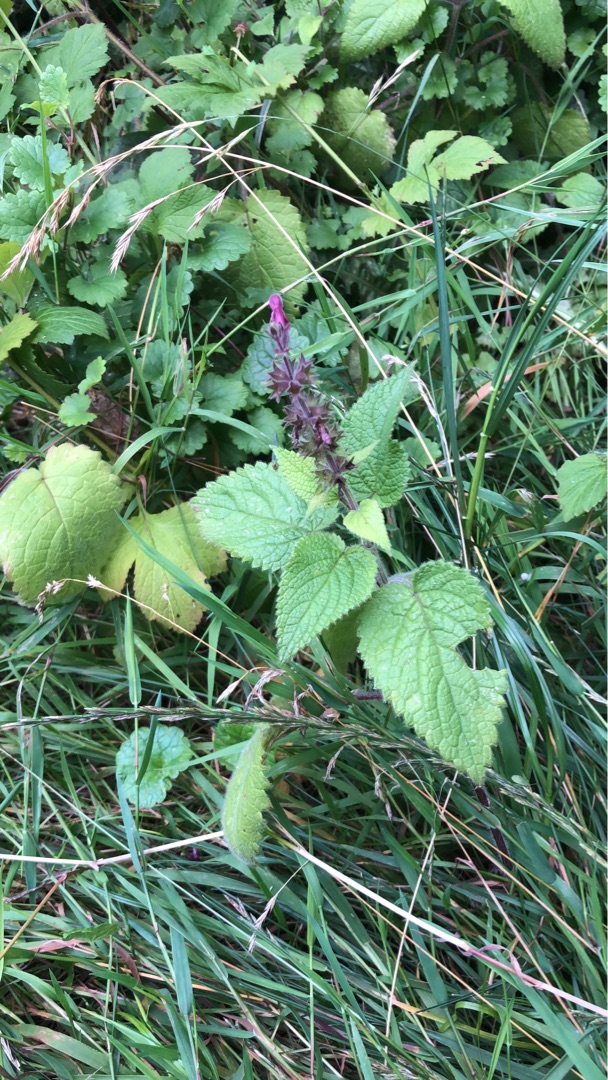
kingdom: Plantae
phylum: Tracheophyta
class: Magnoliopsida
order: Lamiales
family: Lamiaceae
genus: Stachys
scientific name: Stachys sylvatica
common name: Skov-galtetand
